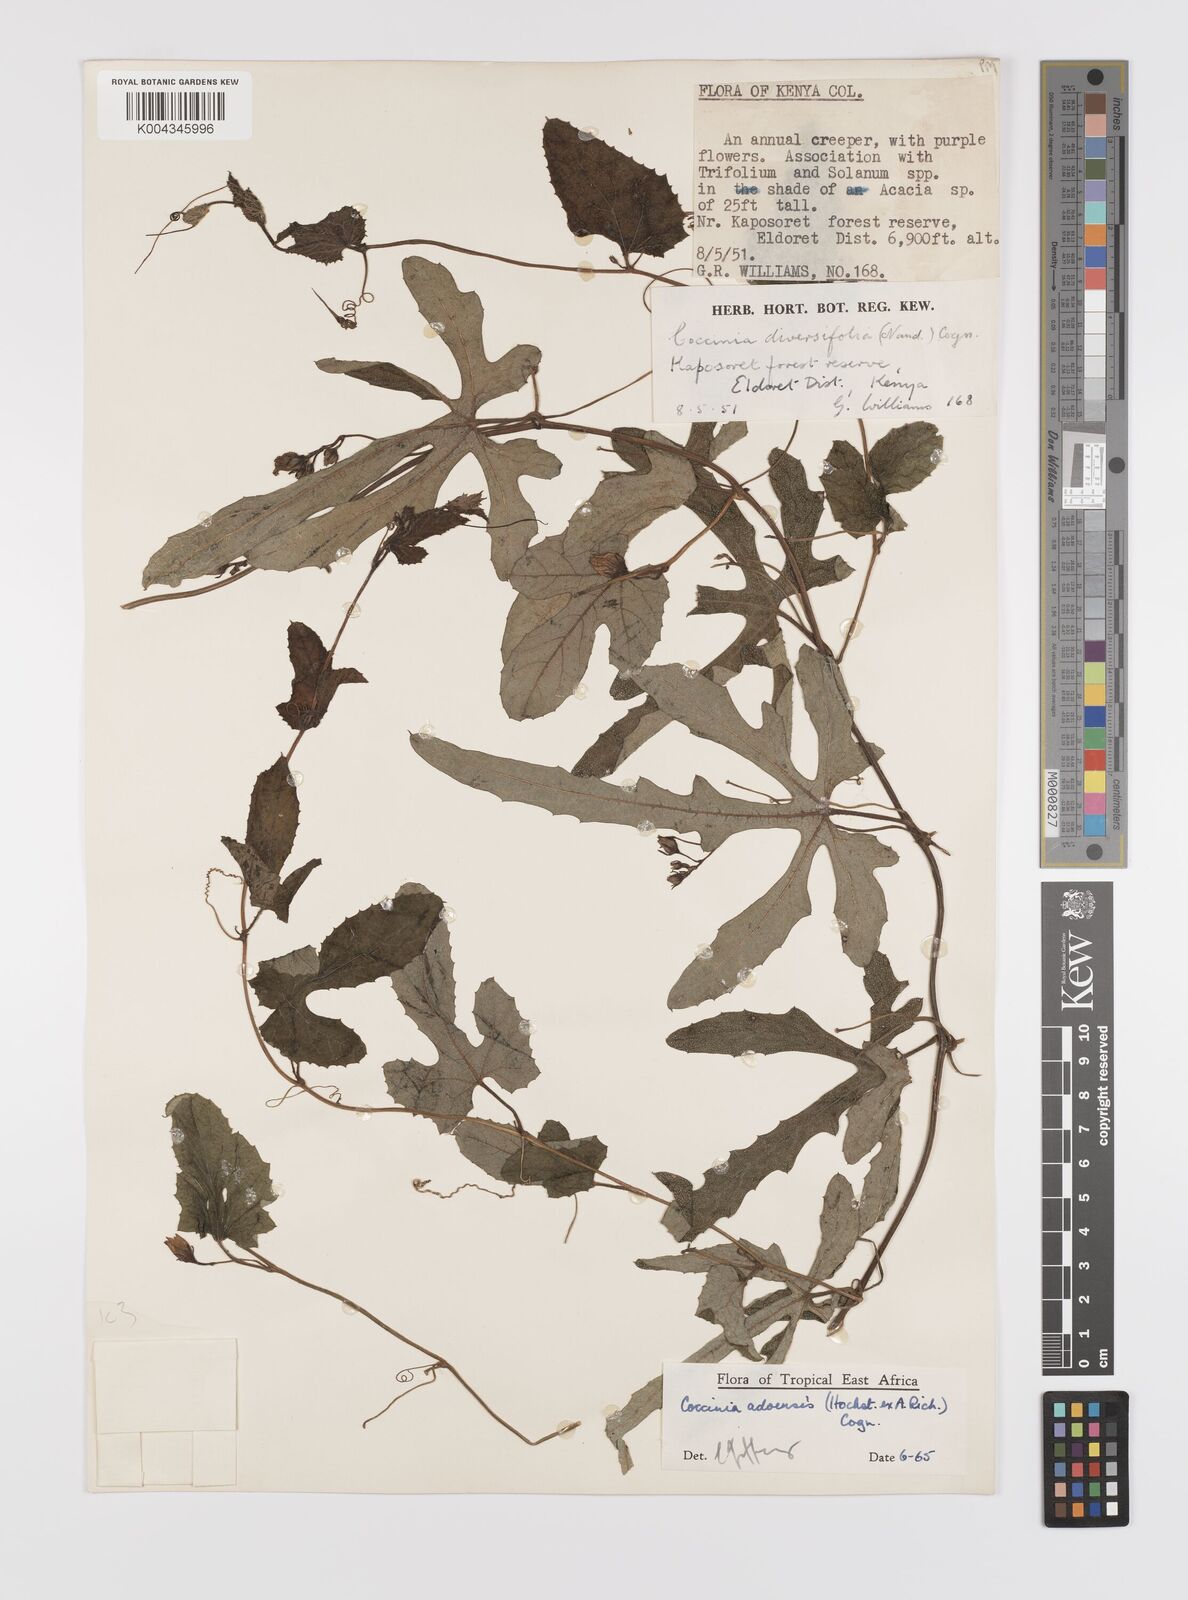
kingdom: Plantae
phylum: Tracheophyta
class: Magnoliopsida
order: Cucurbitales
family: Cucurbitaceae
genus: Coccinia
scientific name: Coccinia adoensis
